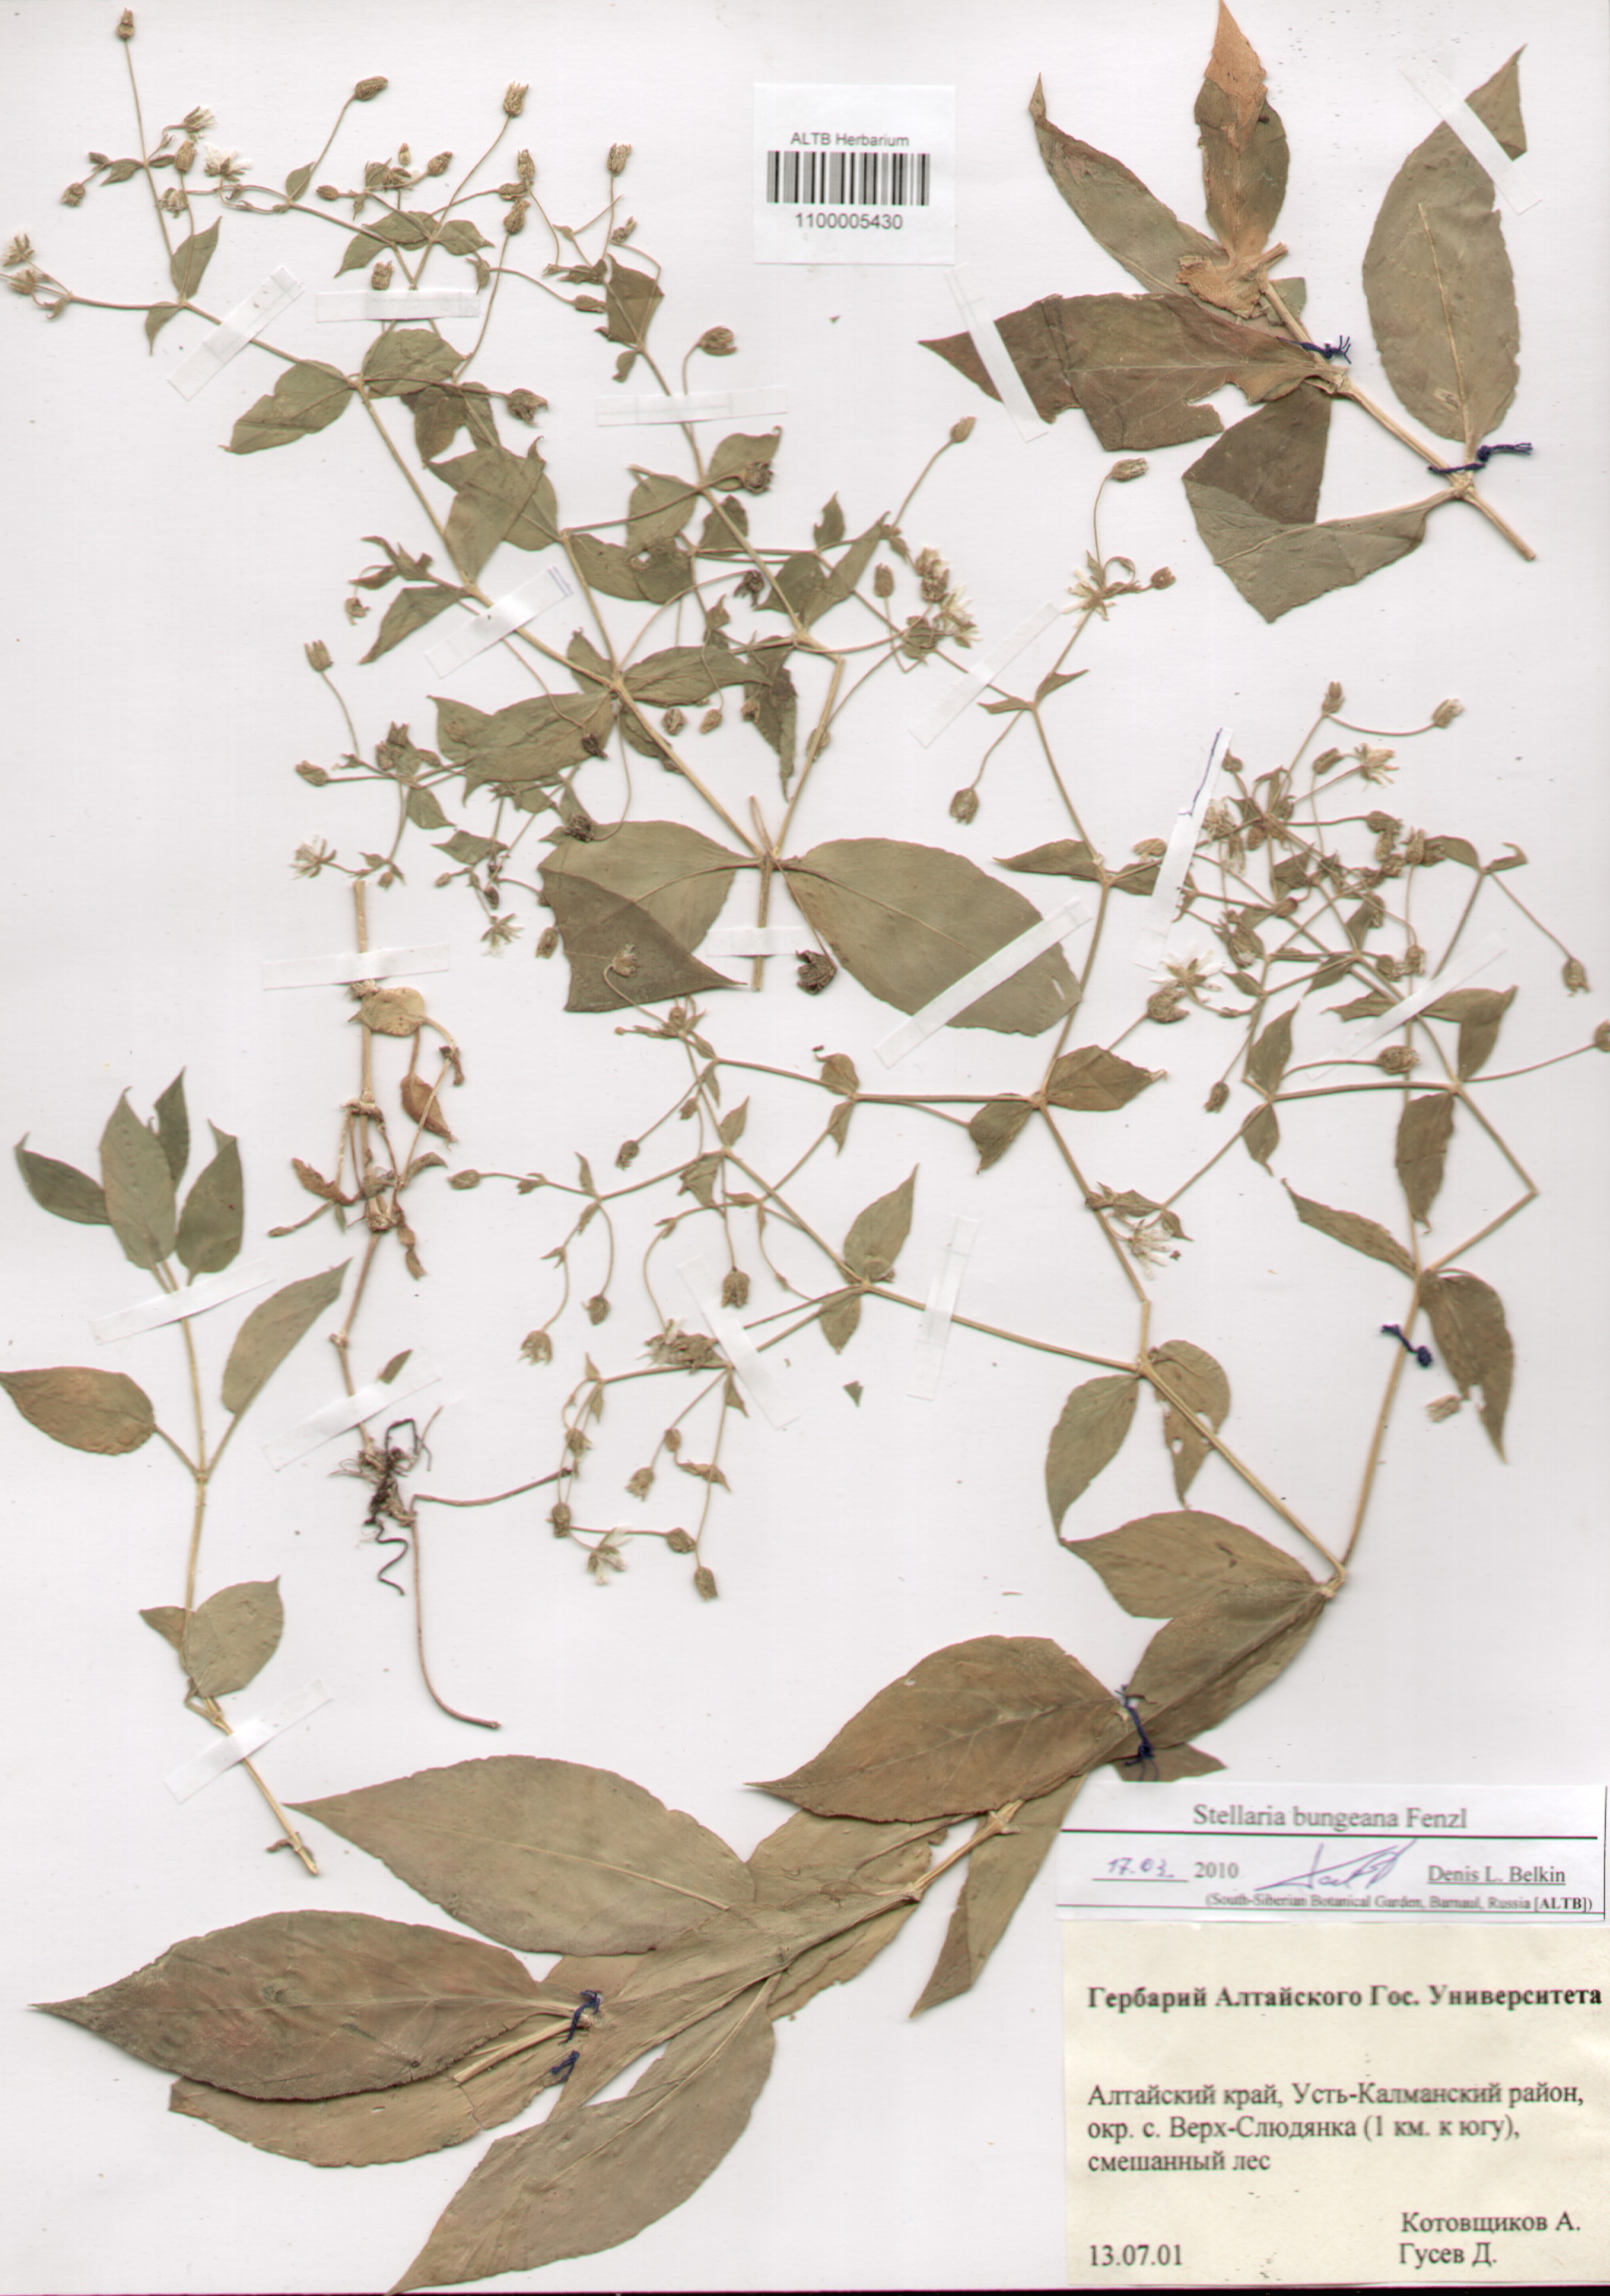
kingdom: Plantae
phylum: Tracheophyta
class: Magnoliopsida
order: Caryophyllales
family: Caryophyllaceae
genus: Stellaria
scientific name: Stellaria bungeana
